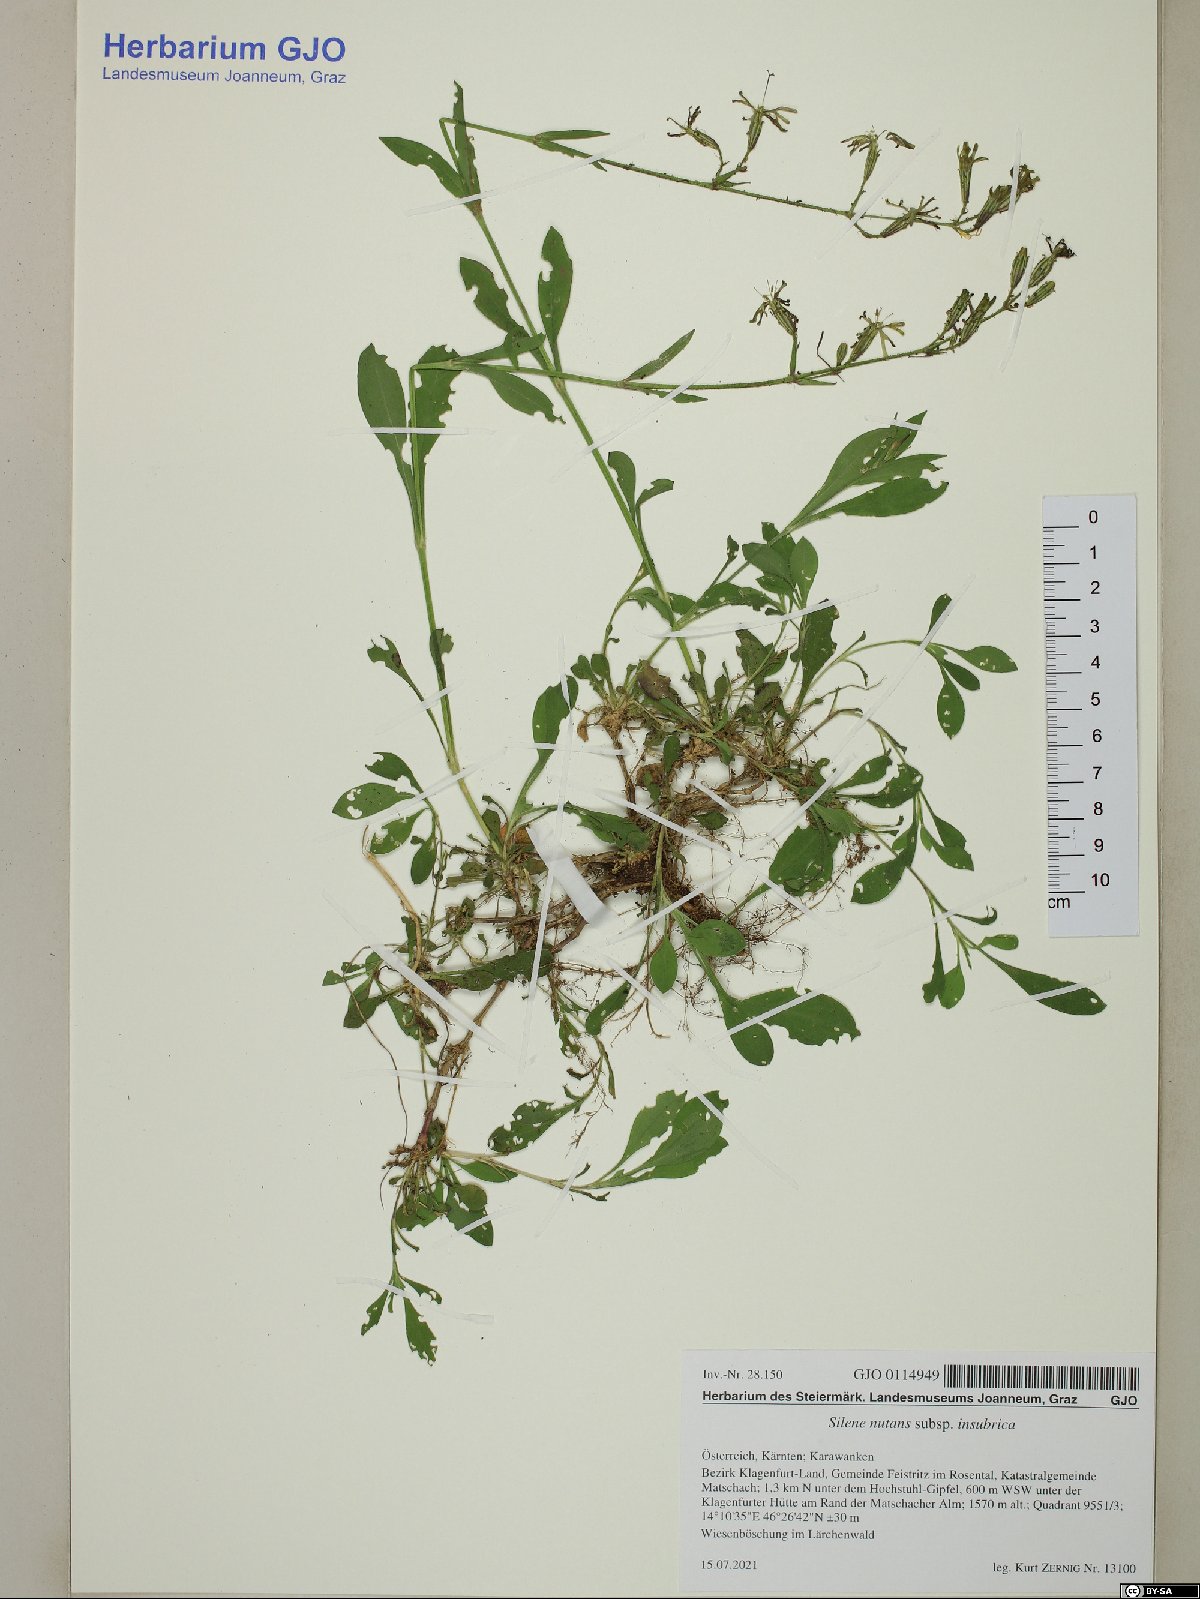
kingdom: Plantae
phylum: Tracheophyta
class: Magnoliopsida
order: Caryophyllales
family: Caryophyllaceae
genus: Silene
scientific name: Silene nutans
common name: Nottingham catchfly
